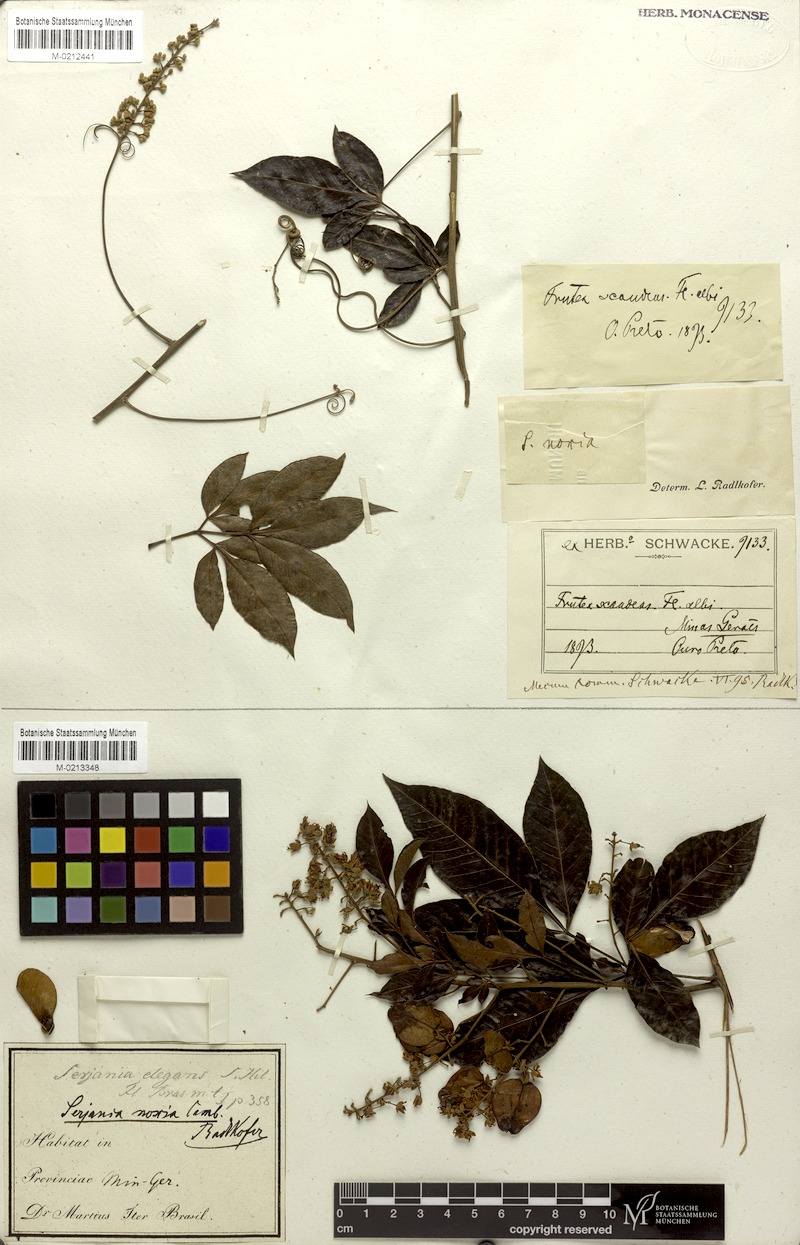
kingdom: Plantae
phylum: Tracheophyta
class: Magnoliopsida
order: Sapindales
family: Sapindaceae
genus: Serjania
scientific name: Serjania noxia
